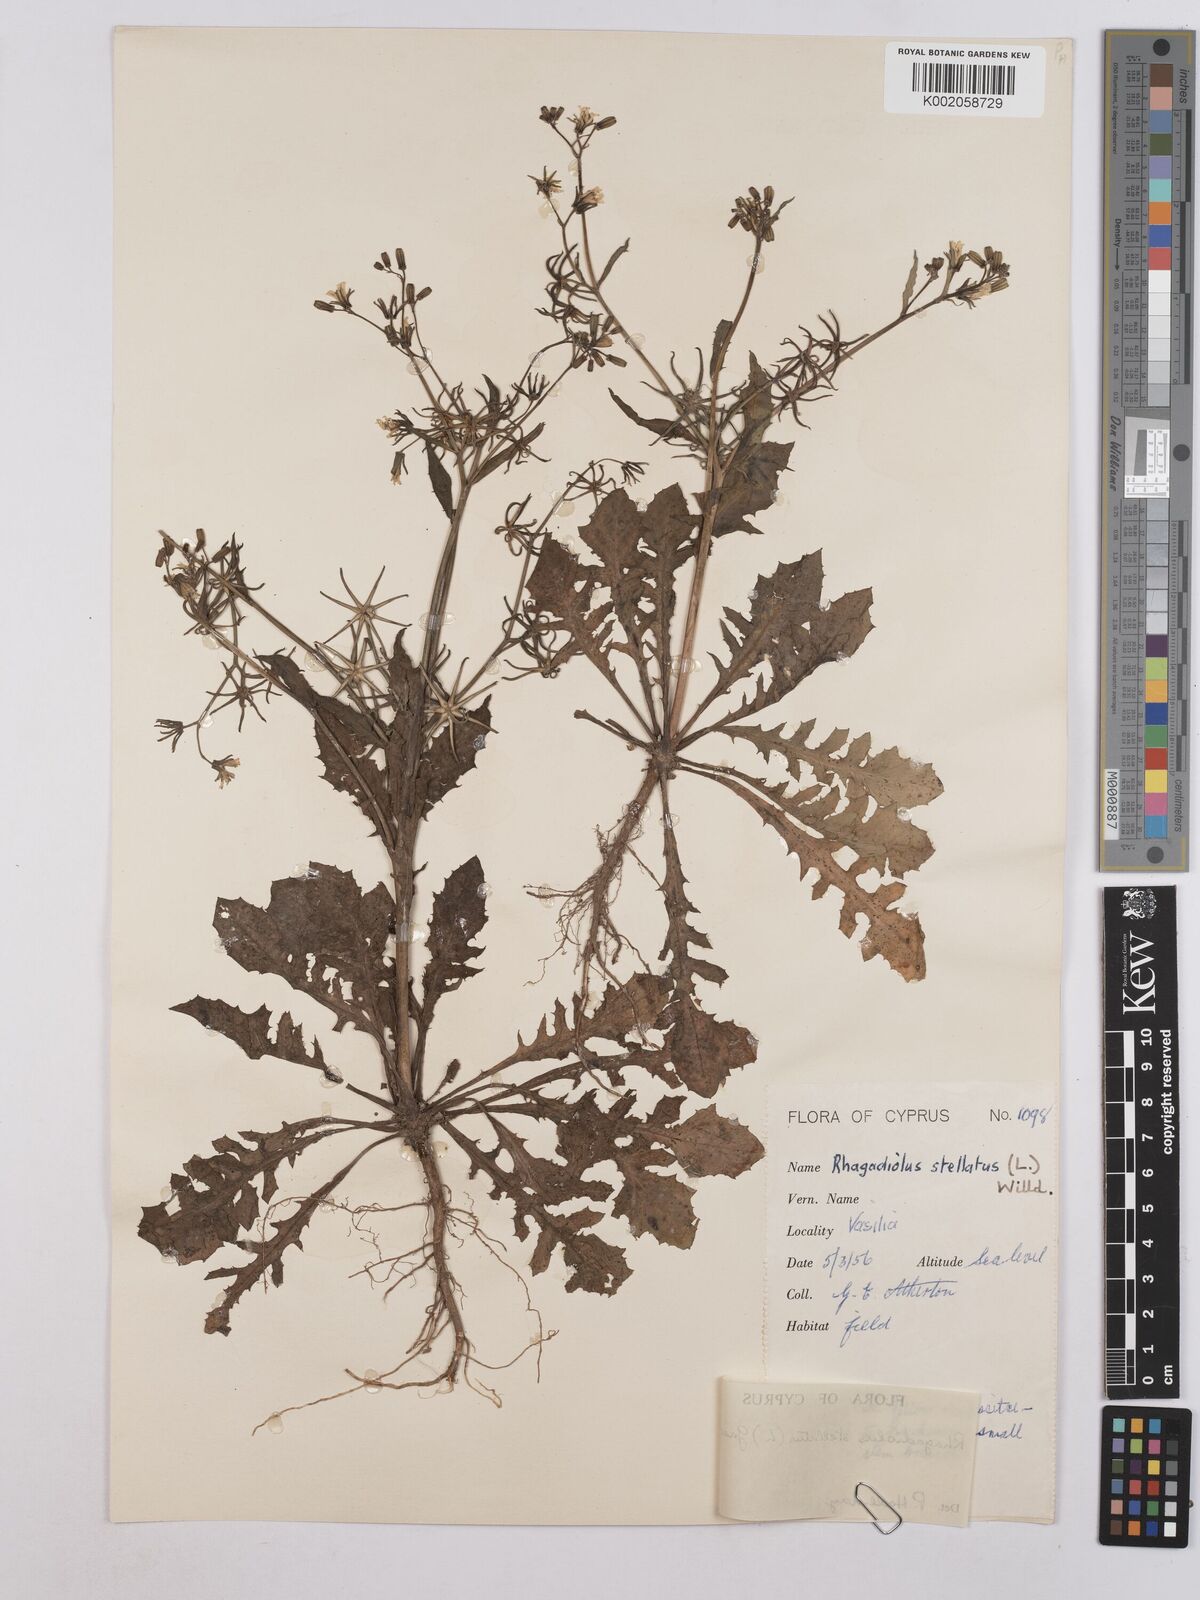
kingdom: Plantae
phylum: Tracheophyta
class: Magnoliopsida
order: Asterales
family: Asteraceae
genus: Rhagadiolus
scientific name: Rhagadiolus stellatus
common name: Star hawkbit
